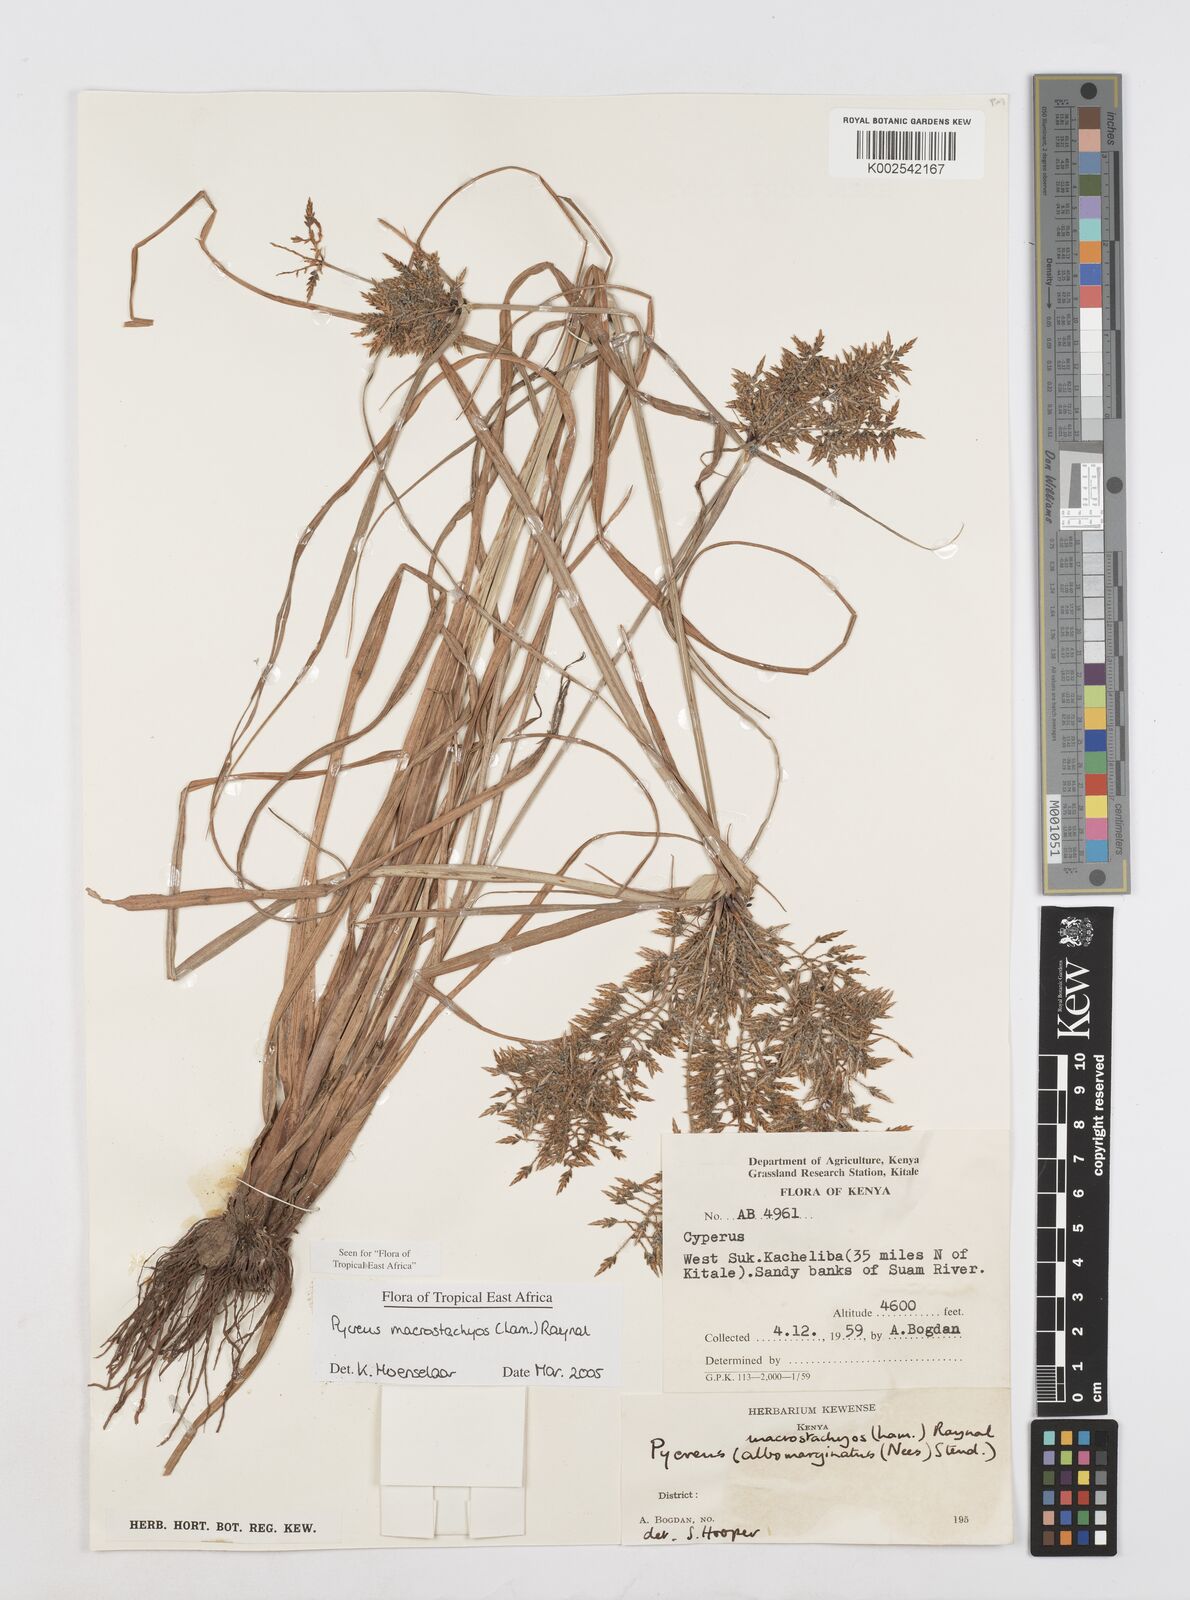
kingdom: Plantae
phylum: Tracheophyta
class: Liliopsida
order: Poales
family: Cyperaceae
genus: Cyperus
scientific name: Cyperus macrostachyos
